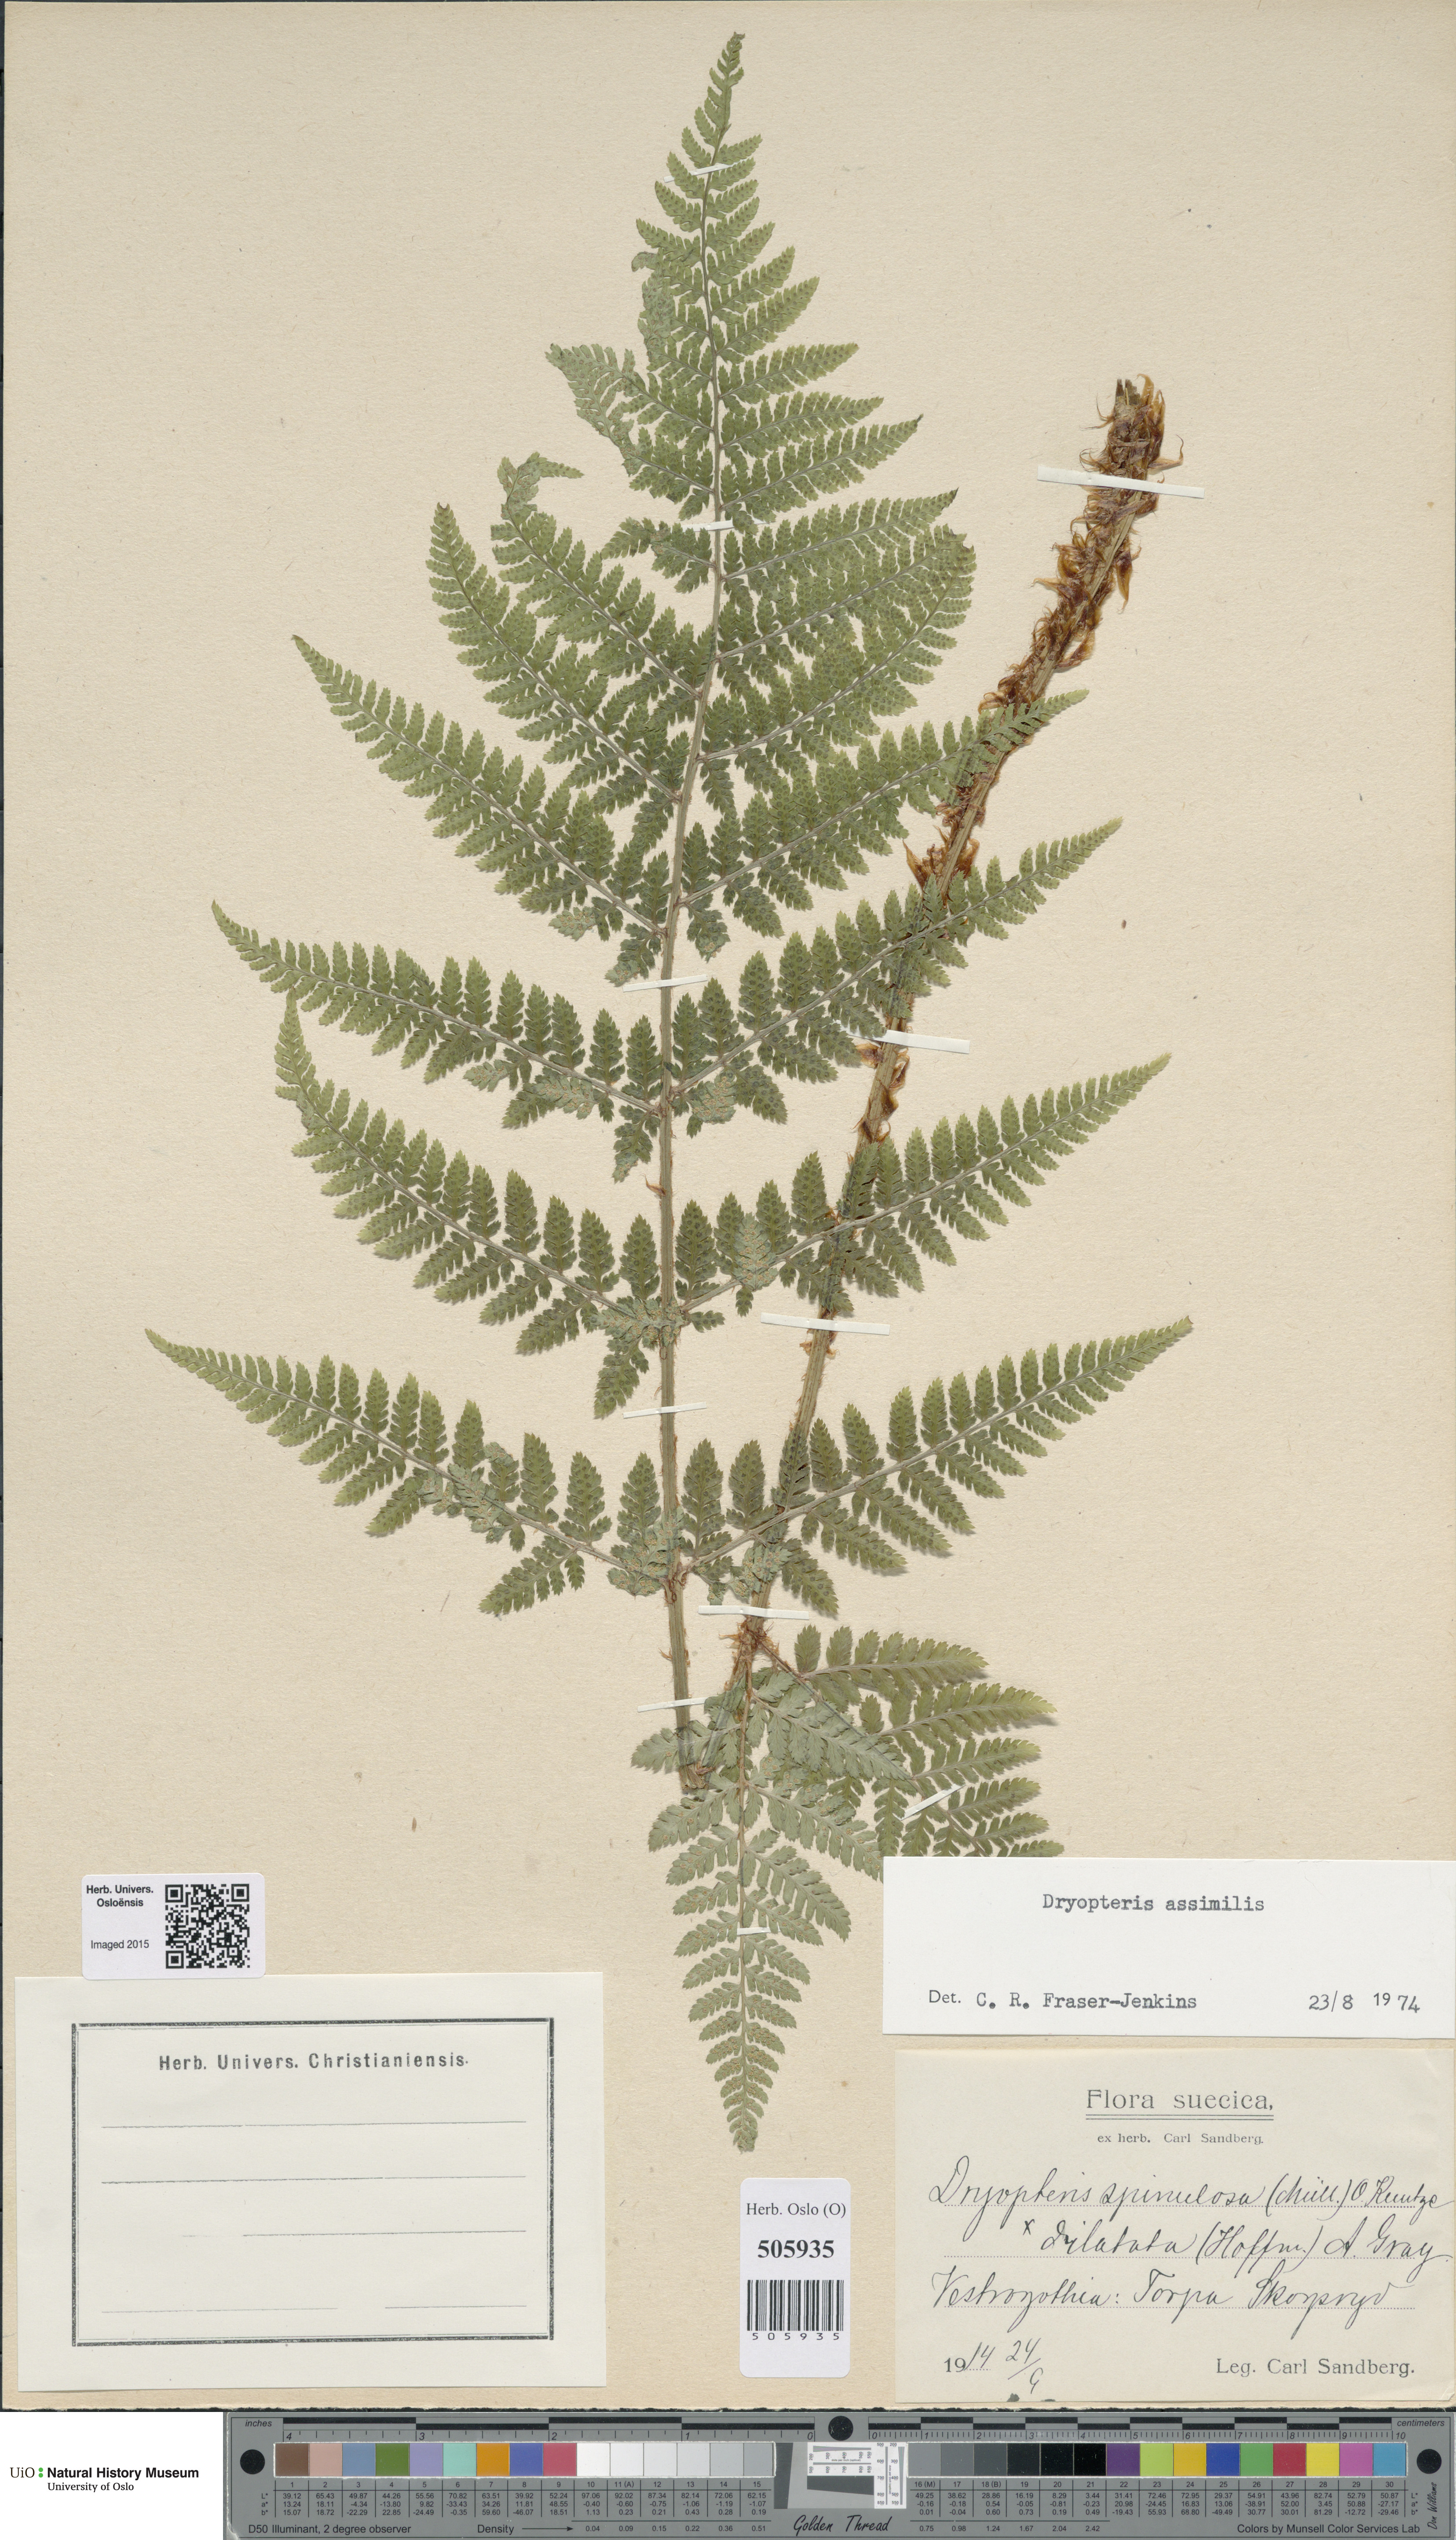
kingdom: Plantae
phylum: Tracheophyta
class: Polypodiopsida
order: Polypodiales
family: Dryopteridaceae
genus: Dryopteris
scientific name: Dryopteris expansa
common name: Northern buckler fern
